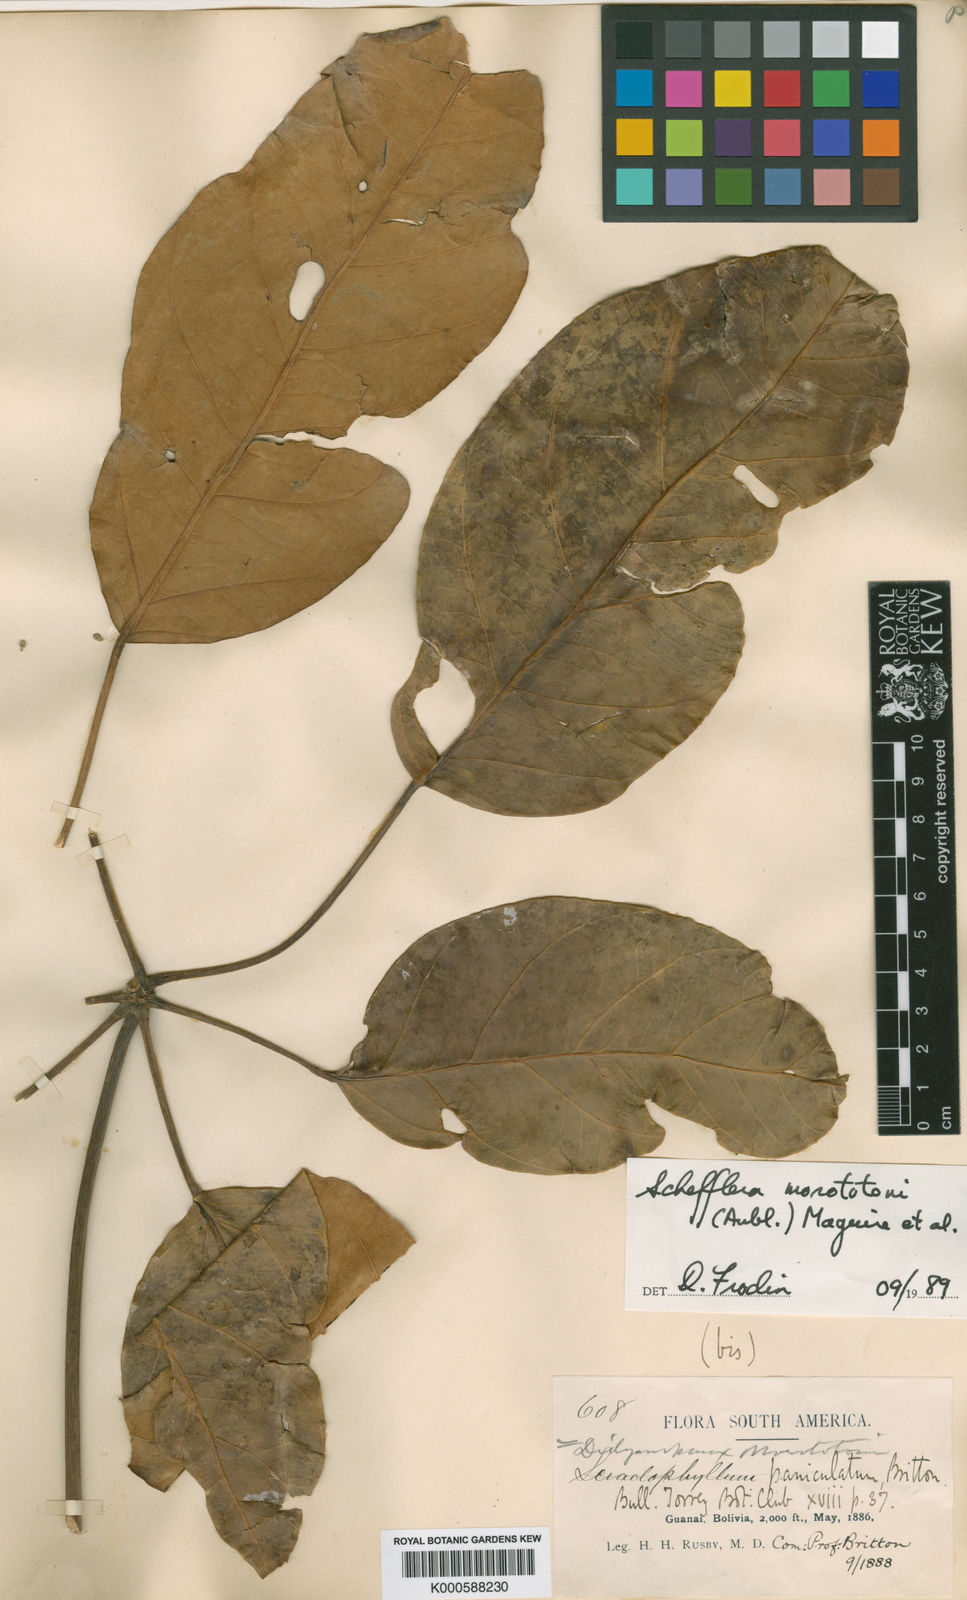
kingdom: Plantae
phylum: Tracheophyta
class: Magnoliopsida
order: Apiales
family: Araliaceae
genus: Schefflera
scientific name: Schefflera
